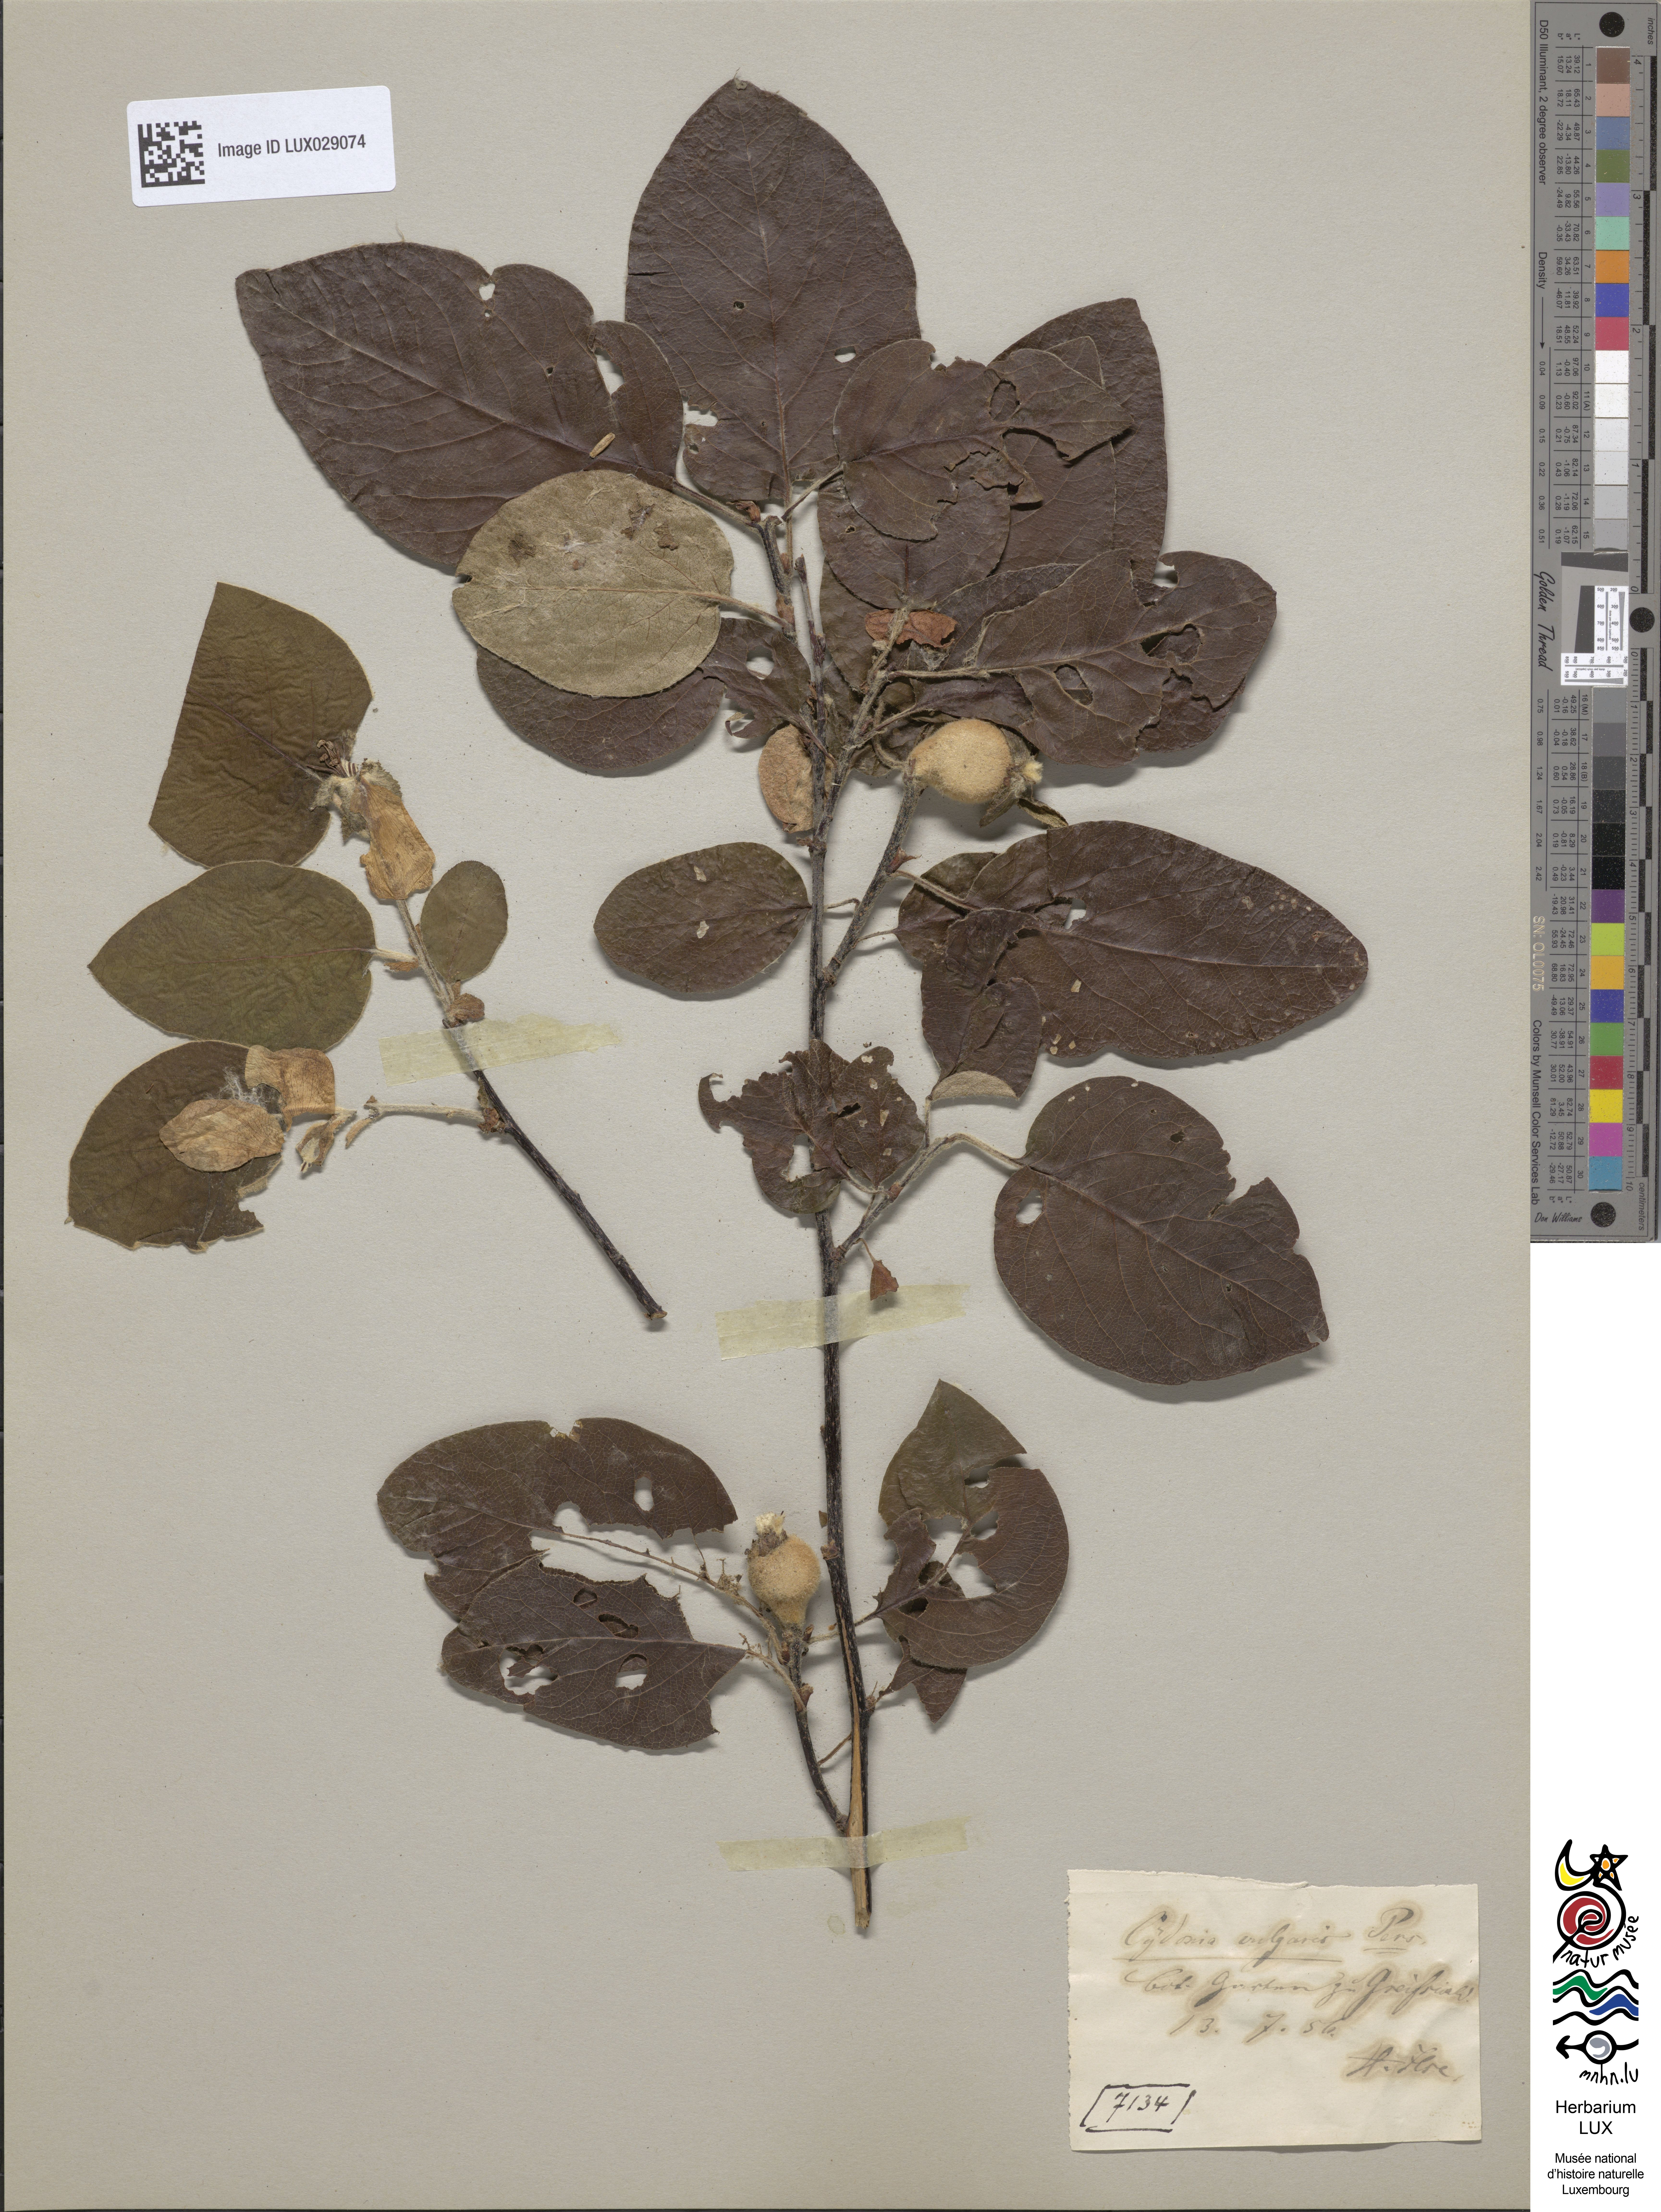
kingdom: Plantae
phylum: Tracheophyta
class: Magnoliopsida
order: Rosales
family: Rosaceae
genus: Cydonia
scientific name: Cydonia oblonga
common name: Quince
